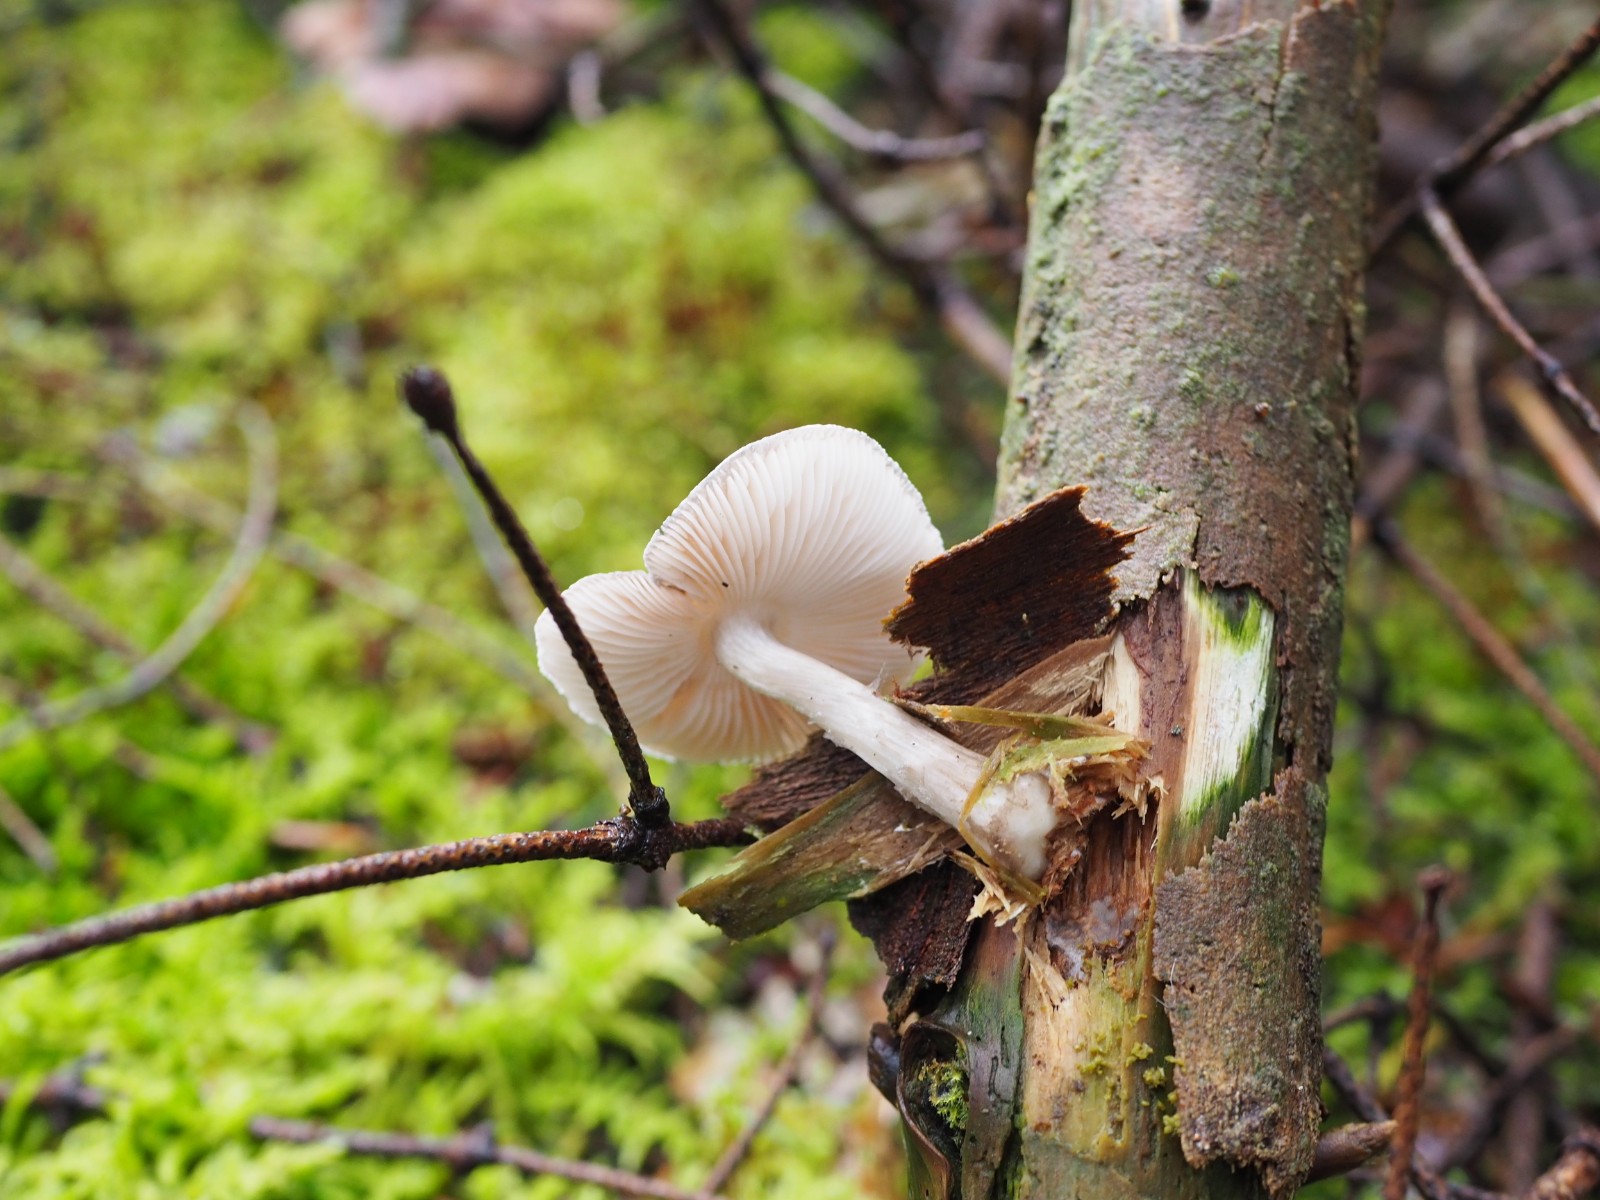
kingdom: Fungi
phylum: Basidiomycota
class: Agaricomycetes
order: Agaricales
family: Pluteaceae
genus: Pluteus
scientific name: Pluteus pouzarianus
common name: plantage-skærmhat
